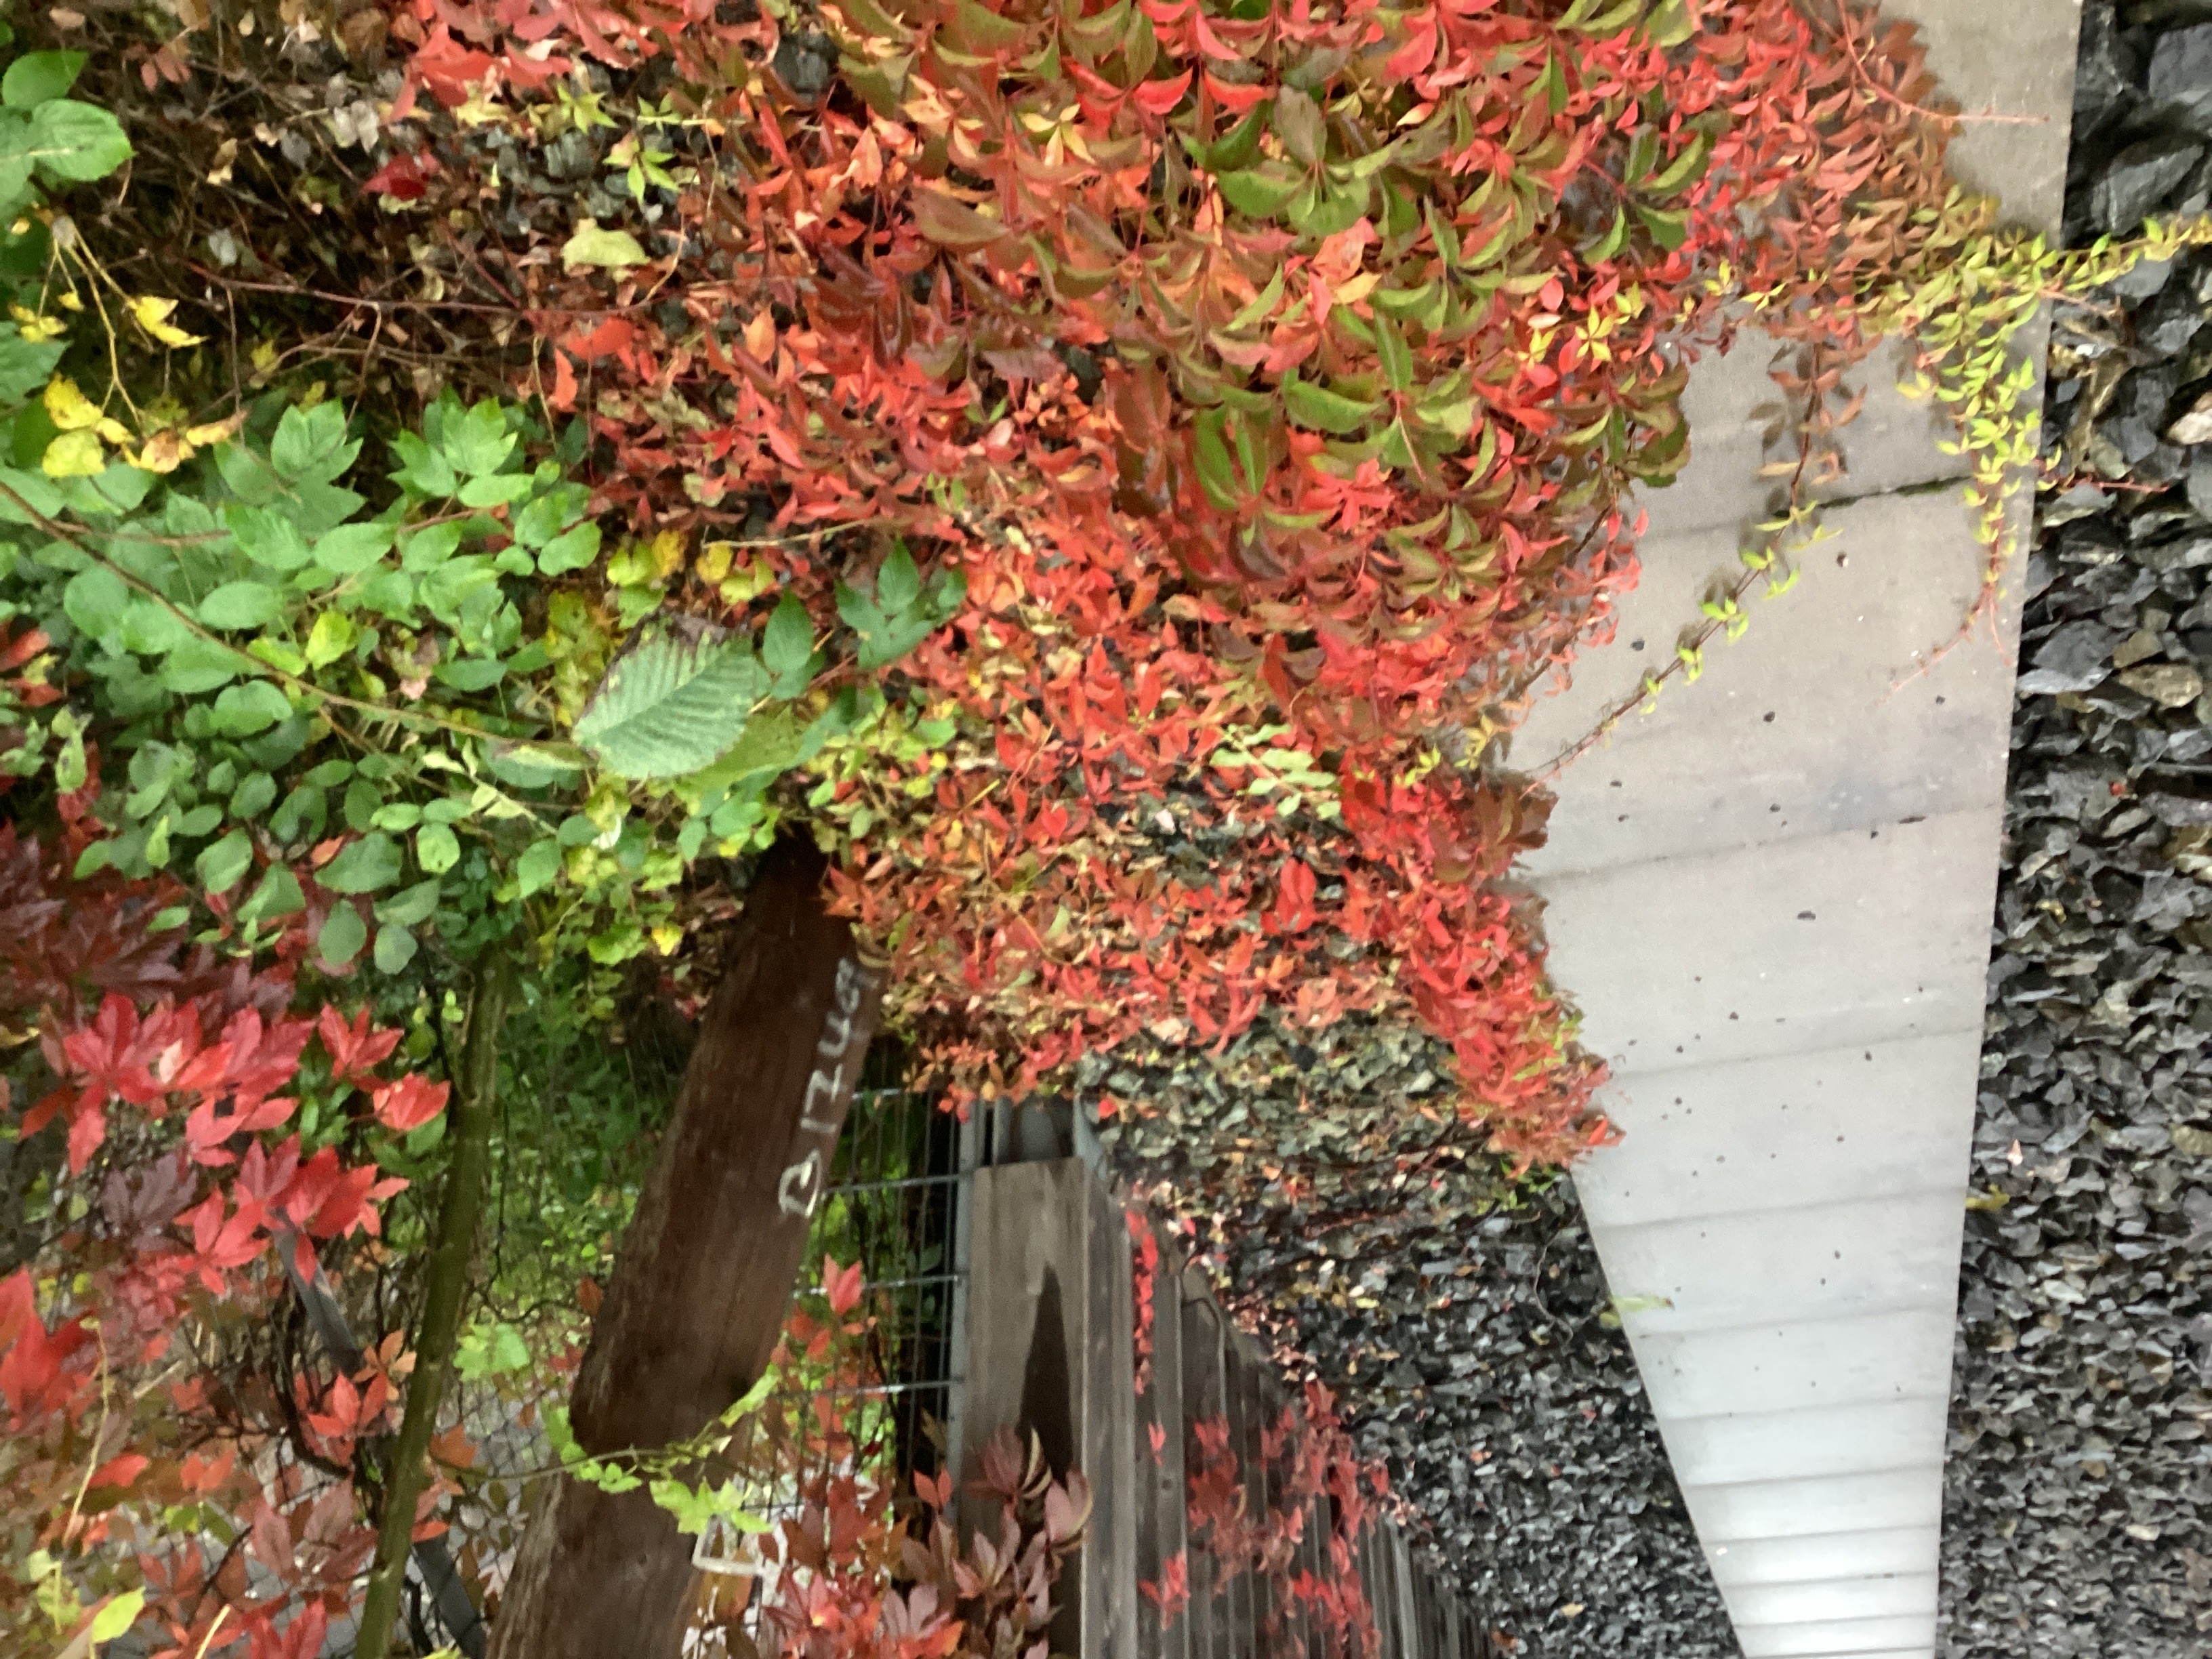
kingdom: Plantae
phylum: Tracheophyta
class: Magnoliopsida
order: Vitales
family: Vitaceae
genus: Parthenocissus
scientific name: Parthenocissus quinquefolia
